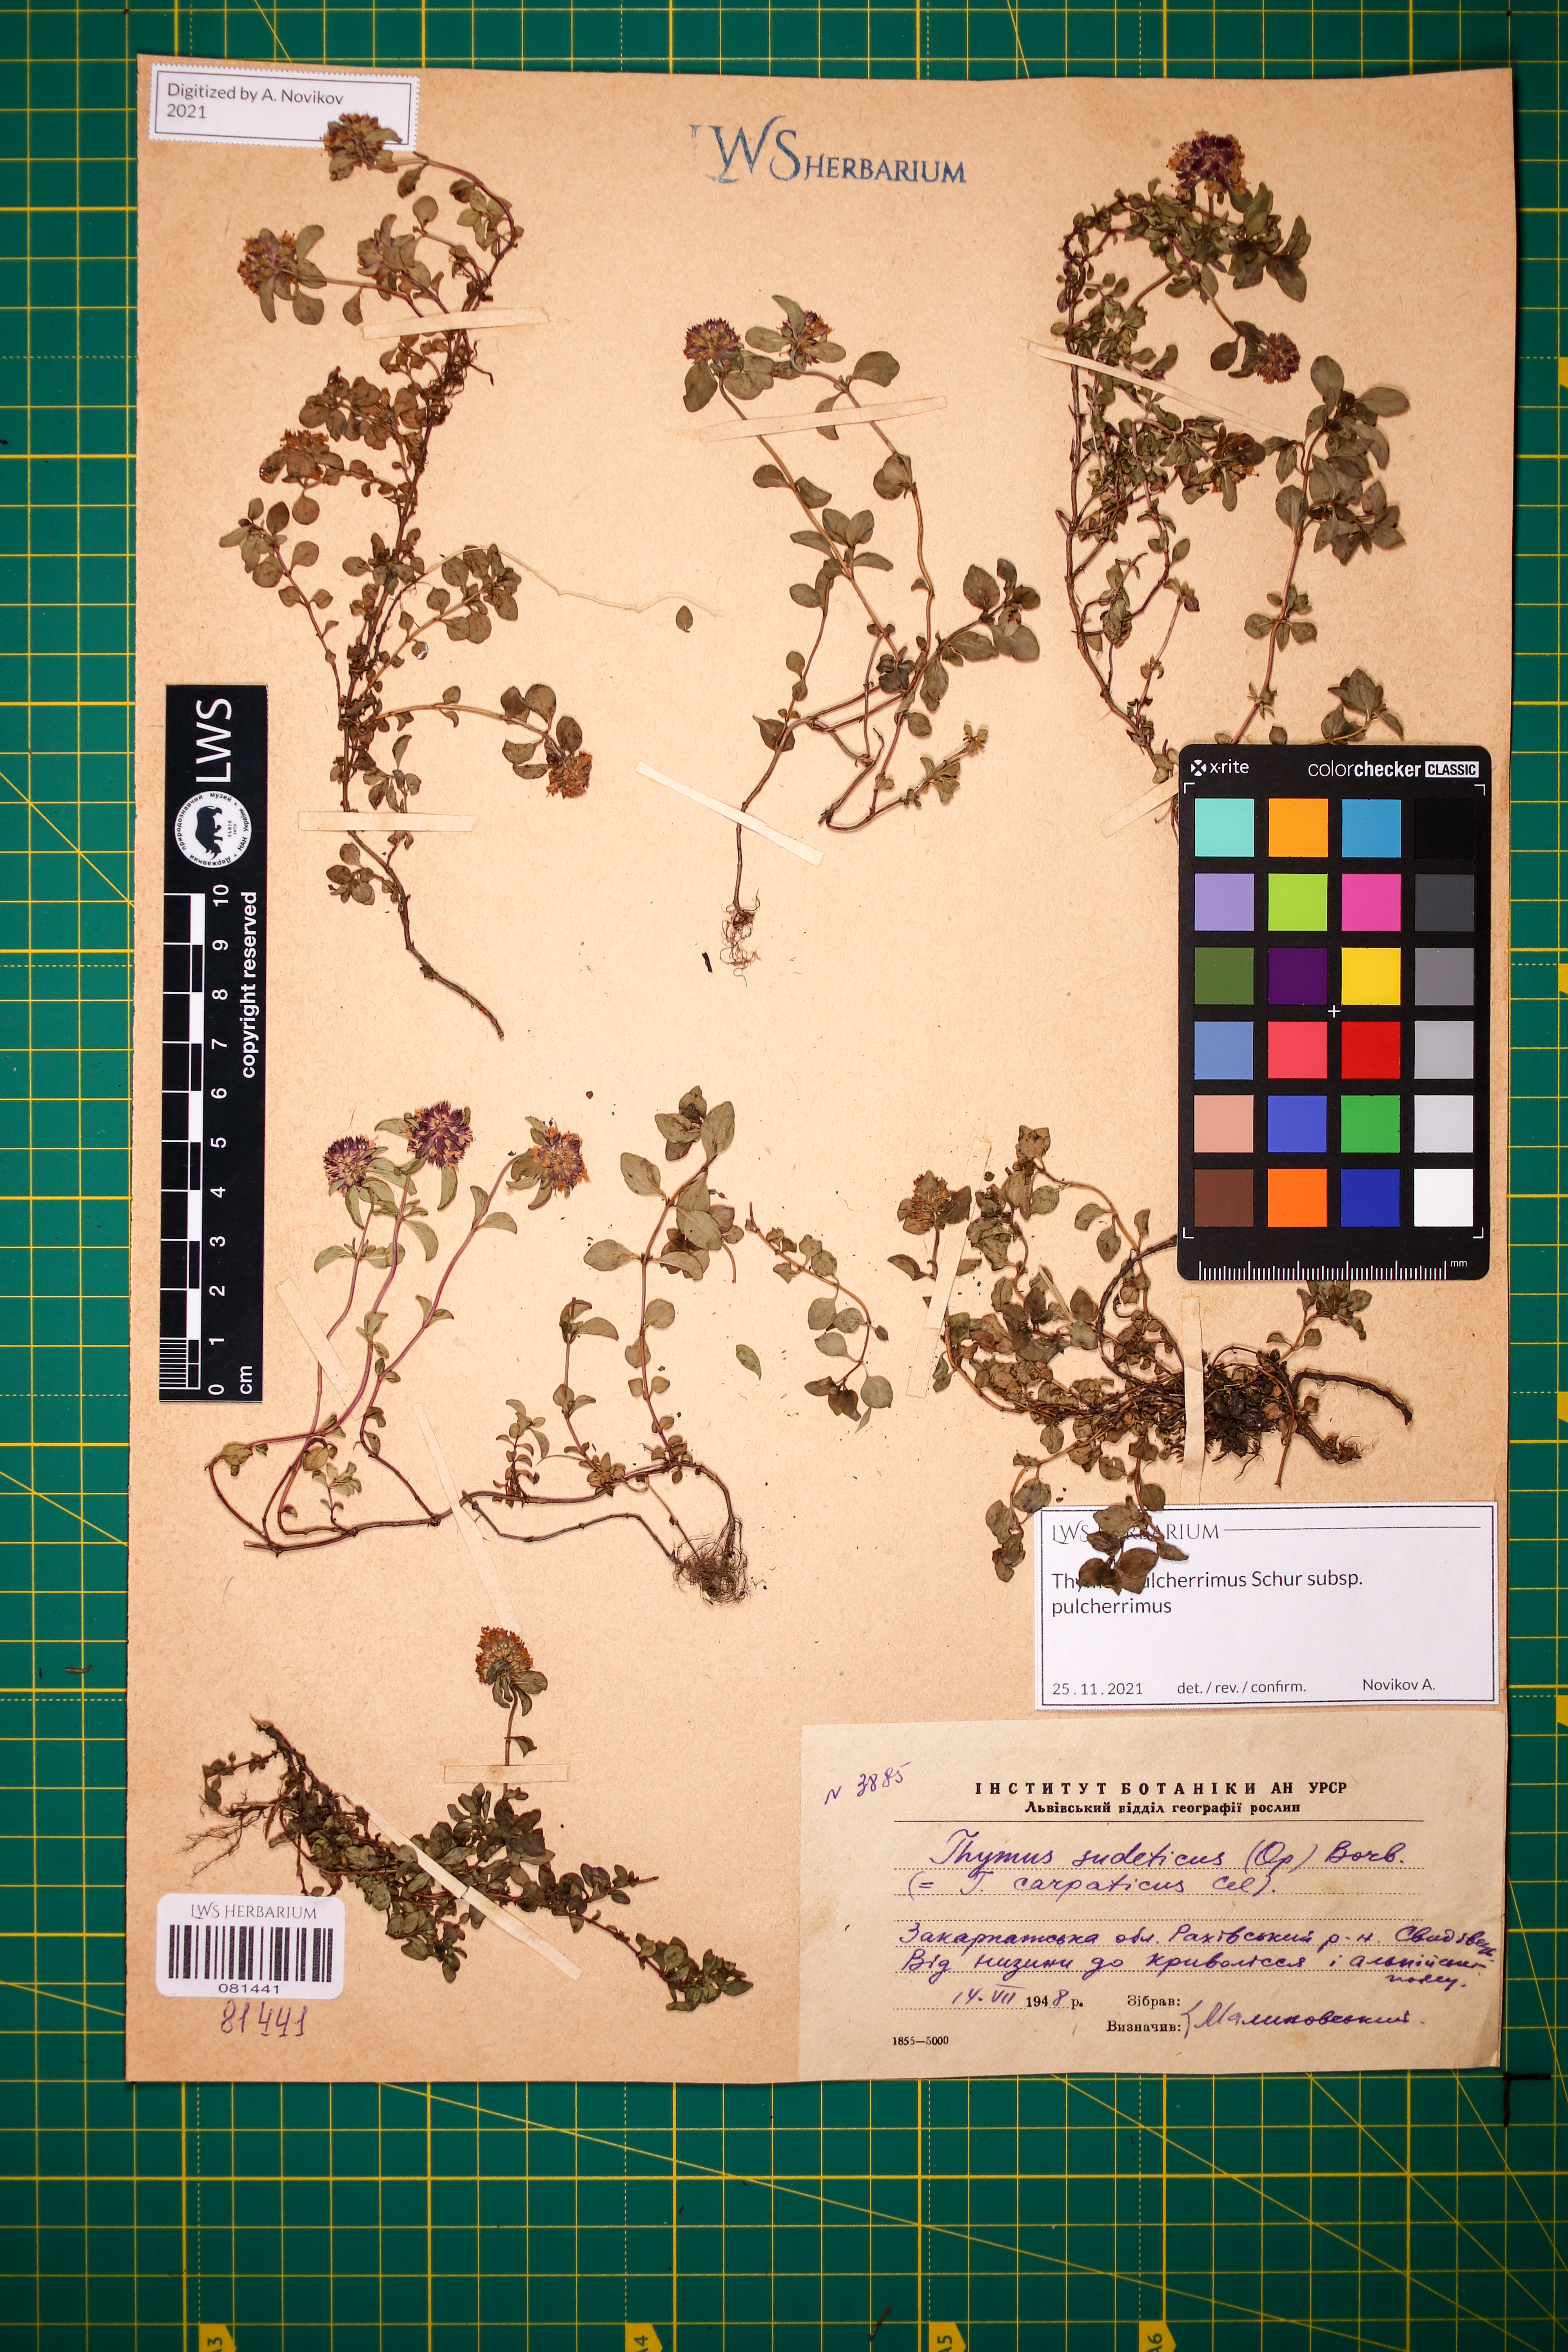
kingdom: Plantae
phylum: Tracheophyta
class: Magnoliopsida
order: Lamiales
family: Lamiaceae
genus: Thymus
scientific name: Thymus pulcherrimus
